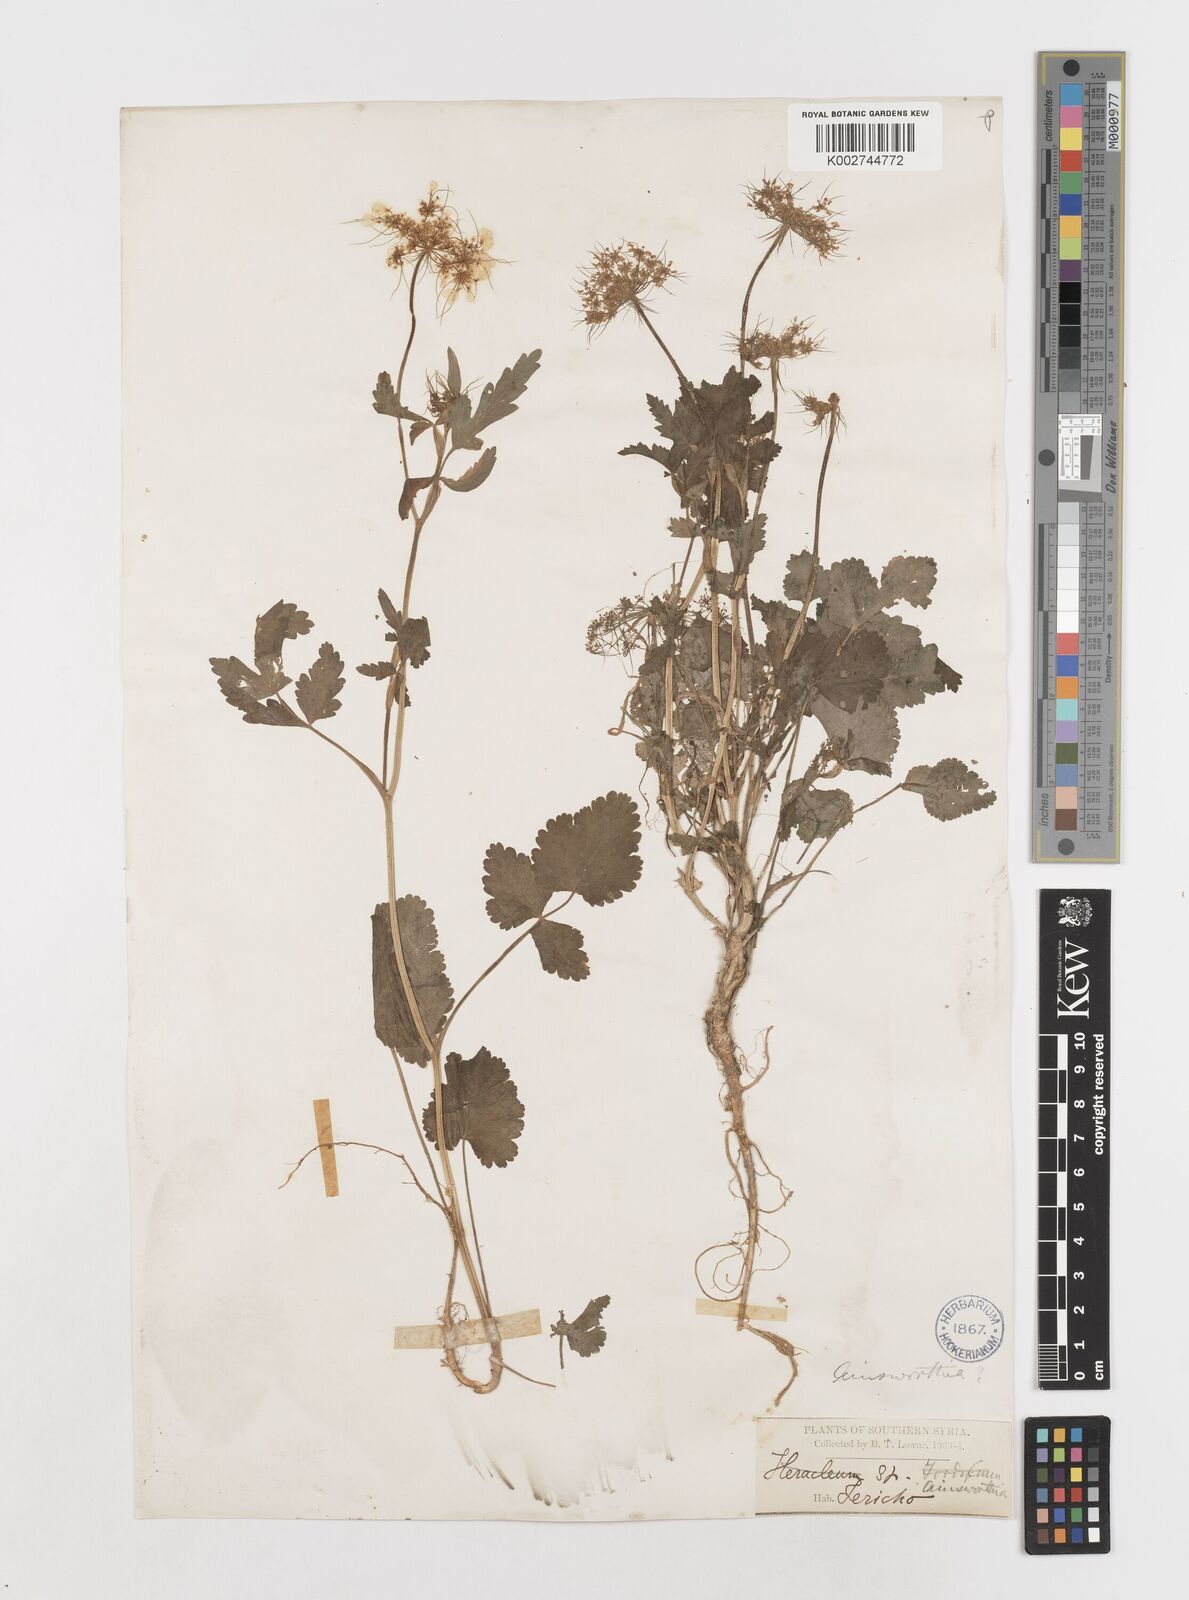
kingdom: Plantae
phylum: Tracheophyta
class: Magnoliopsida
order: Apiales
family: Apiaceae
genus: Ainsworthia
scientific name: Ainsworthia trachycarpa
